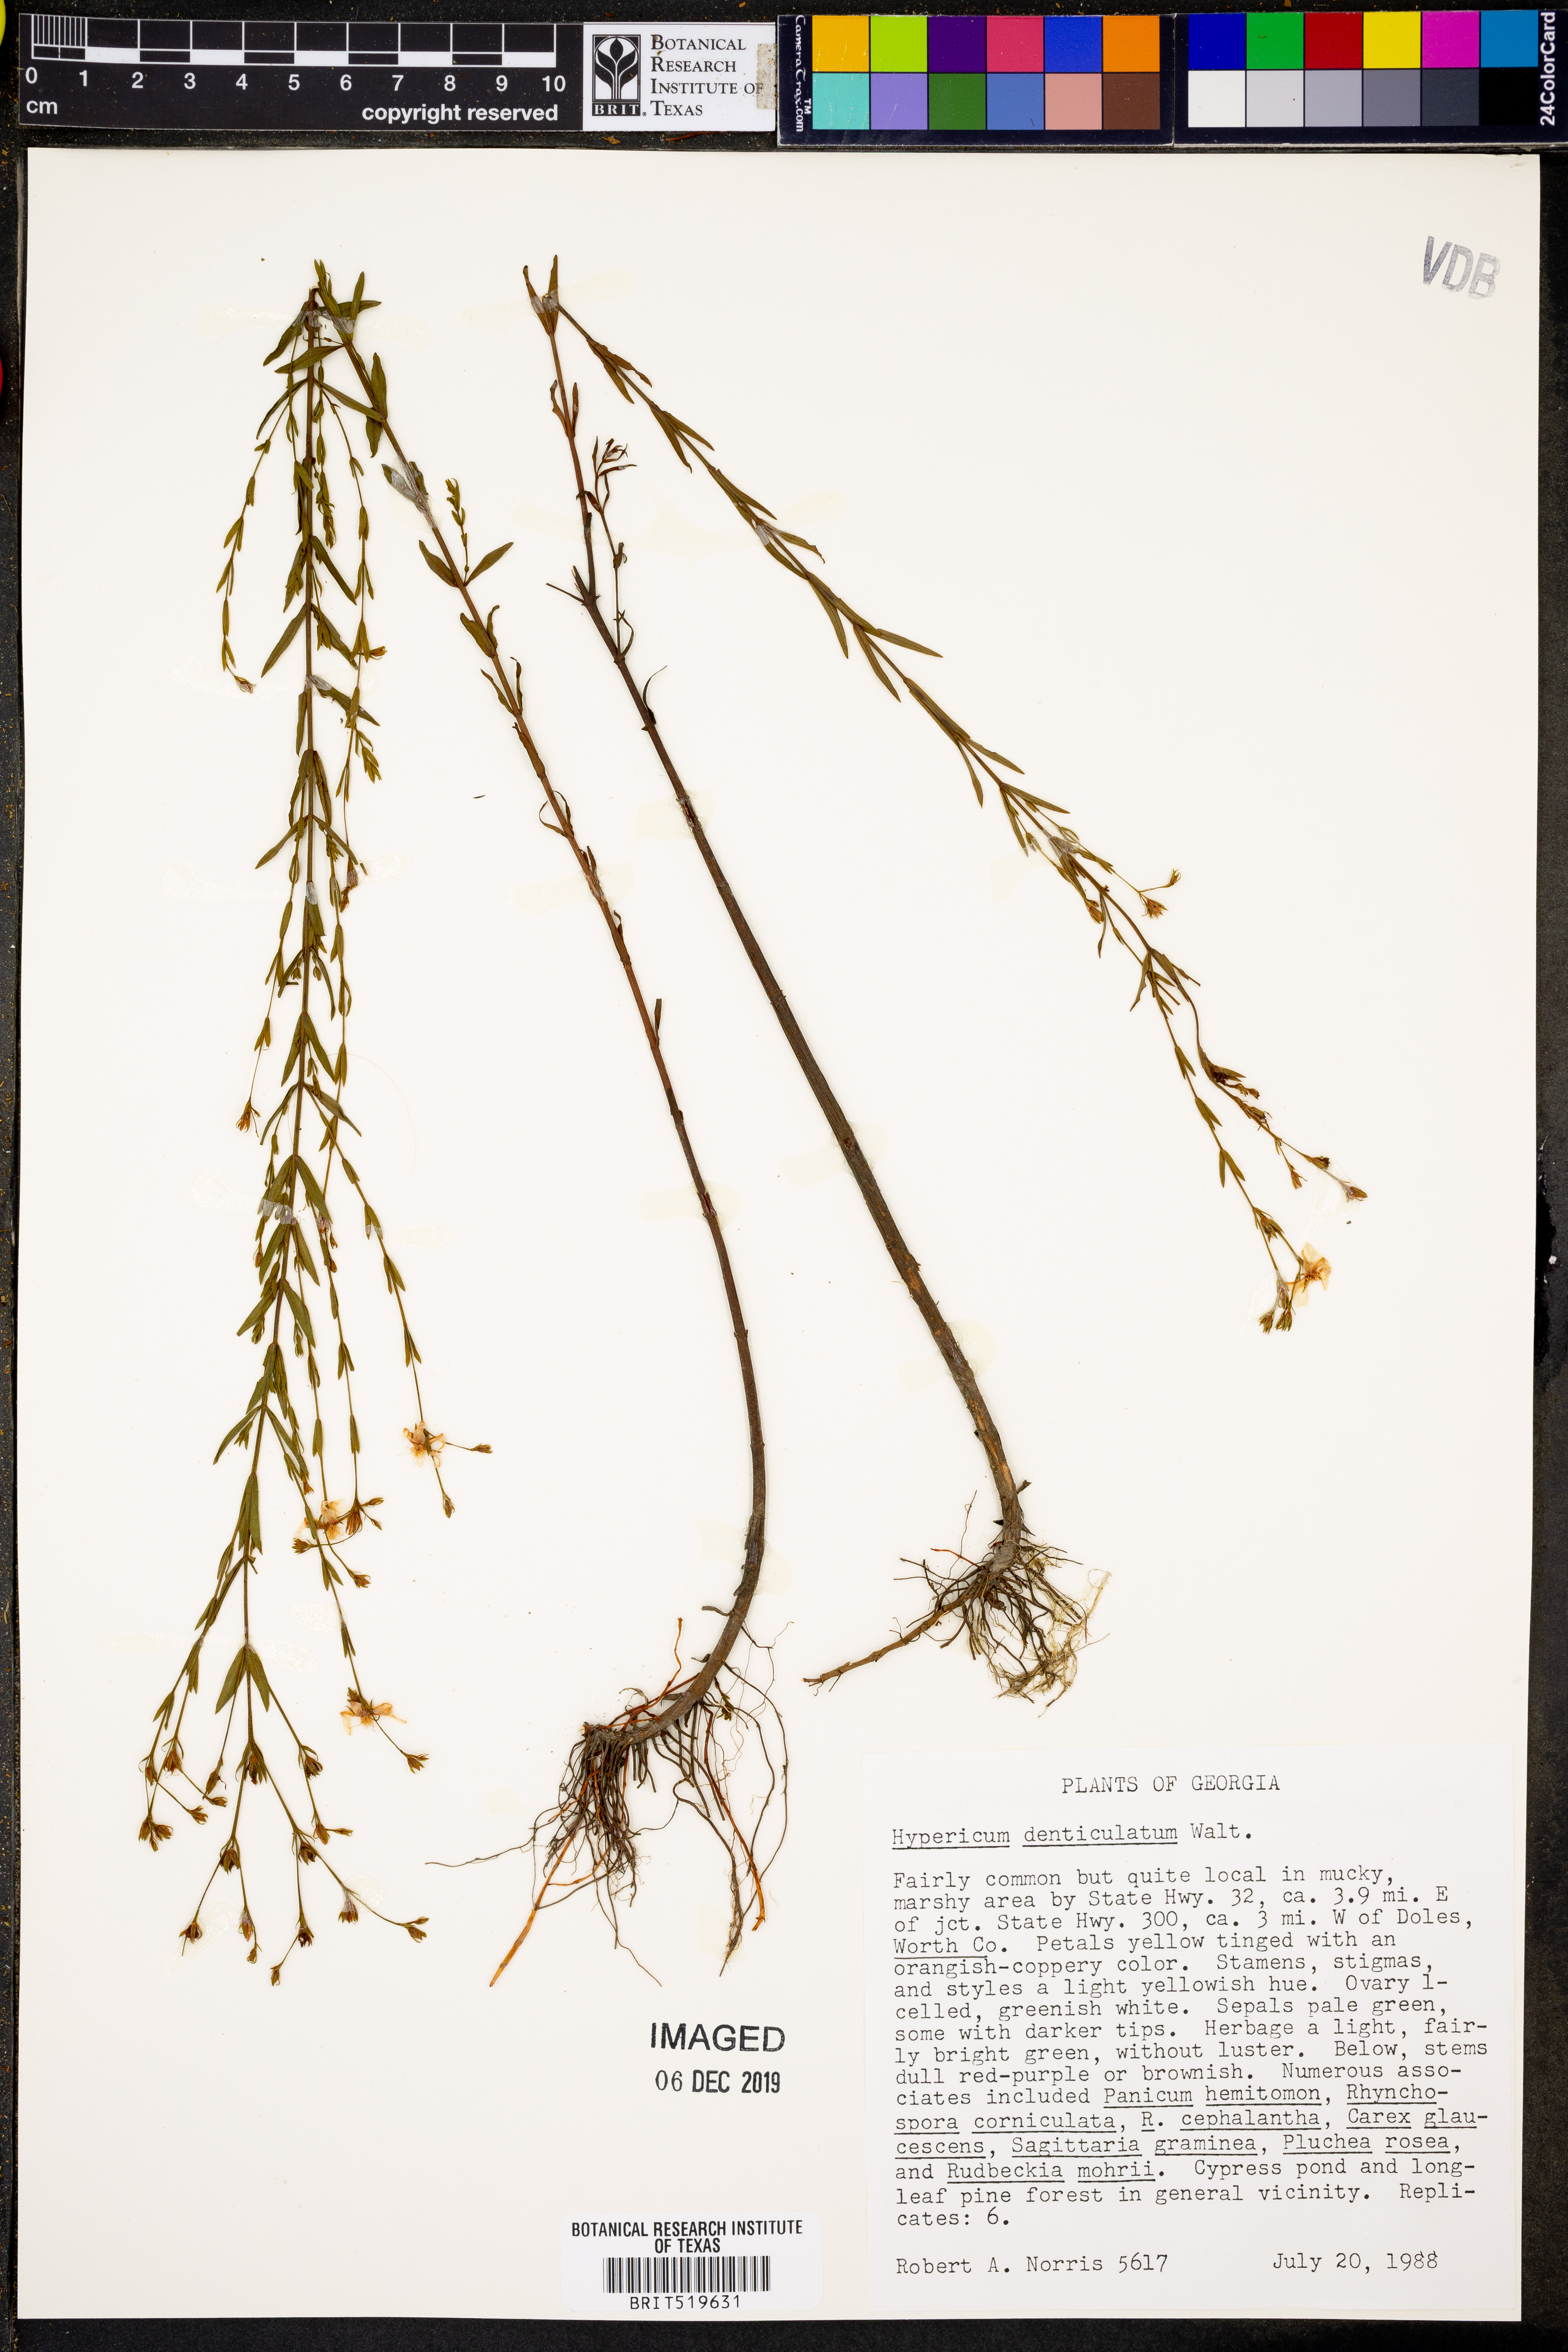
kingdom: Plantae
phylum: Tracheophyta
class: Magnoliopsida
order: Malpighiales
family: Hypericaceae
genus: Hypericum
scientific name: Hypericum denticulatum
